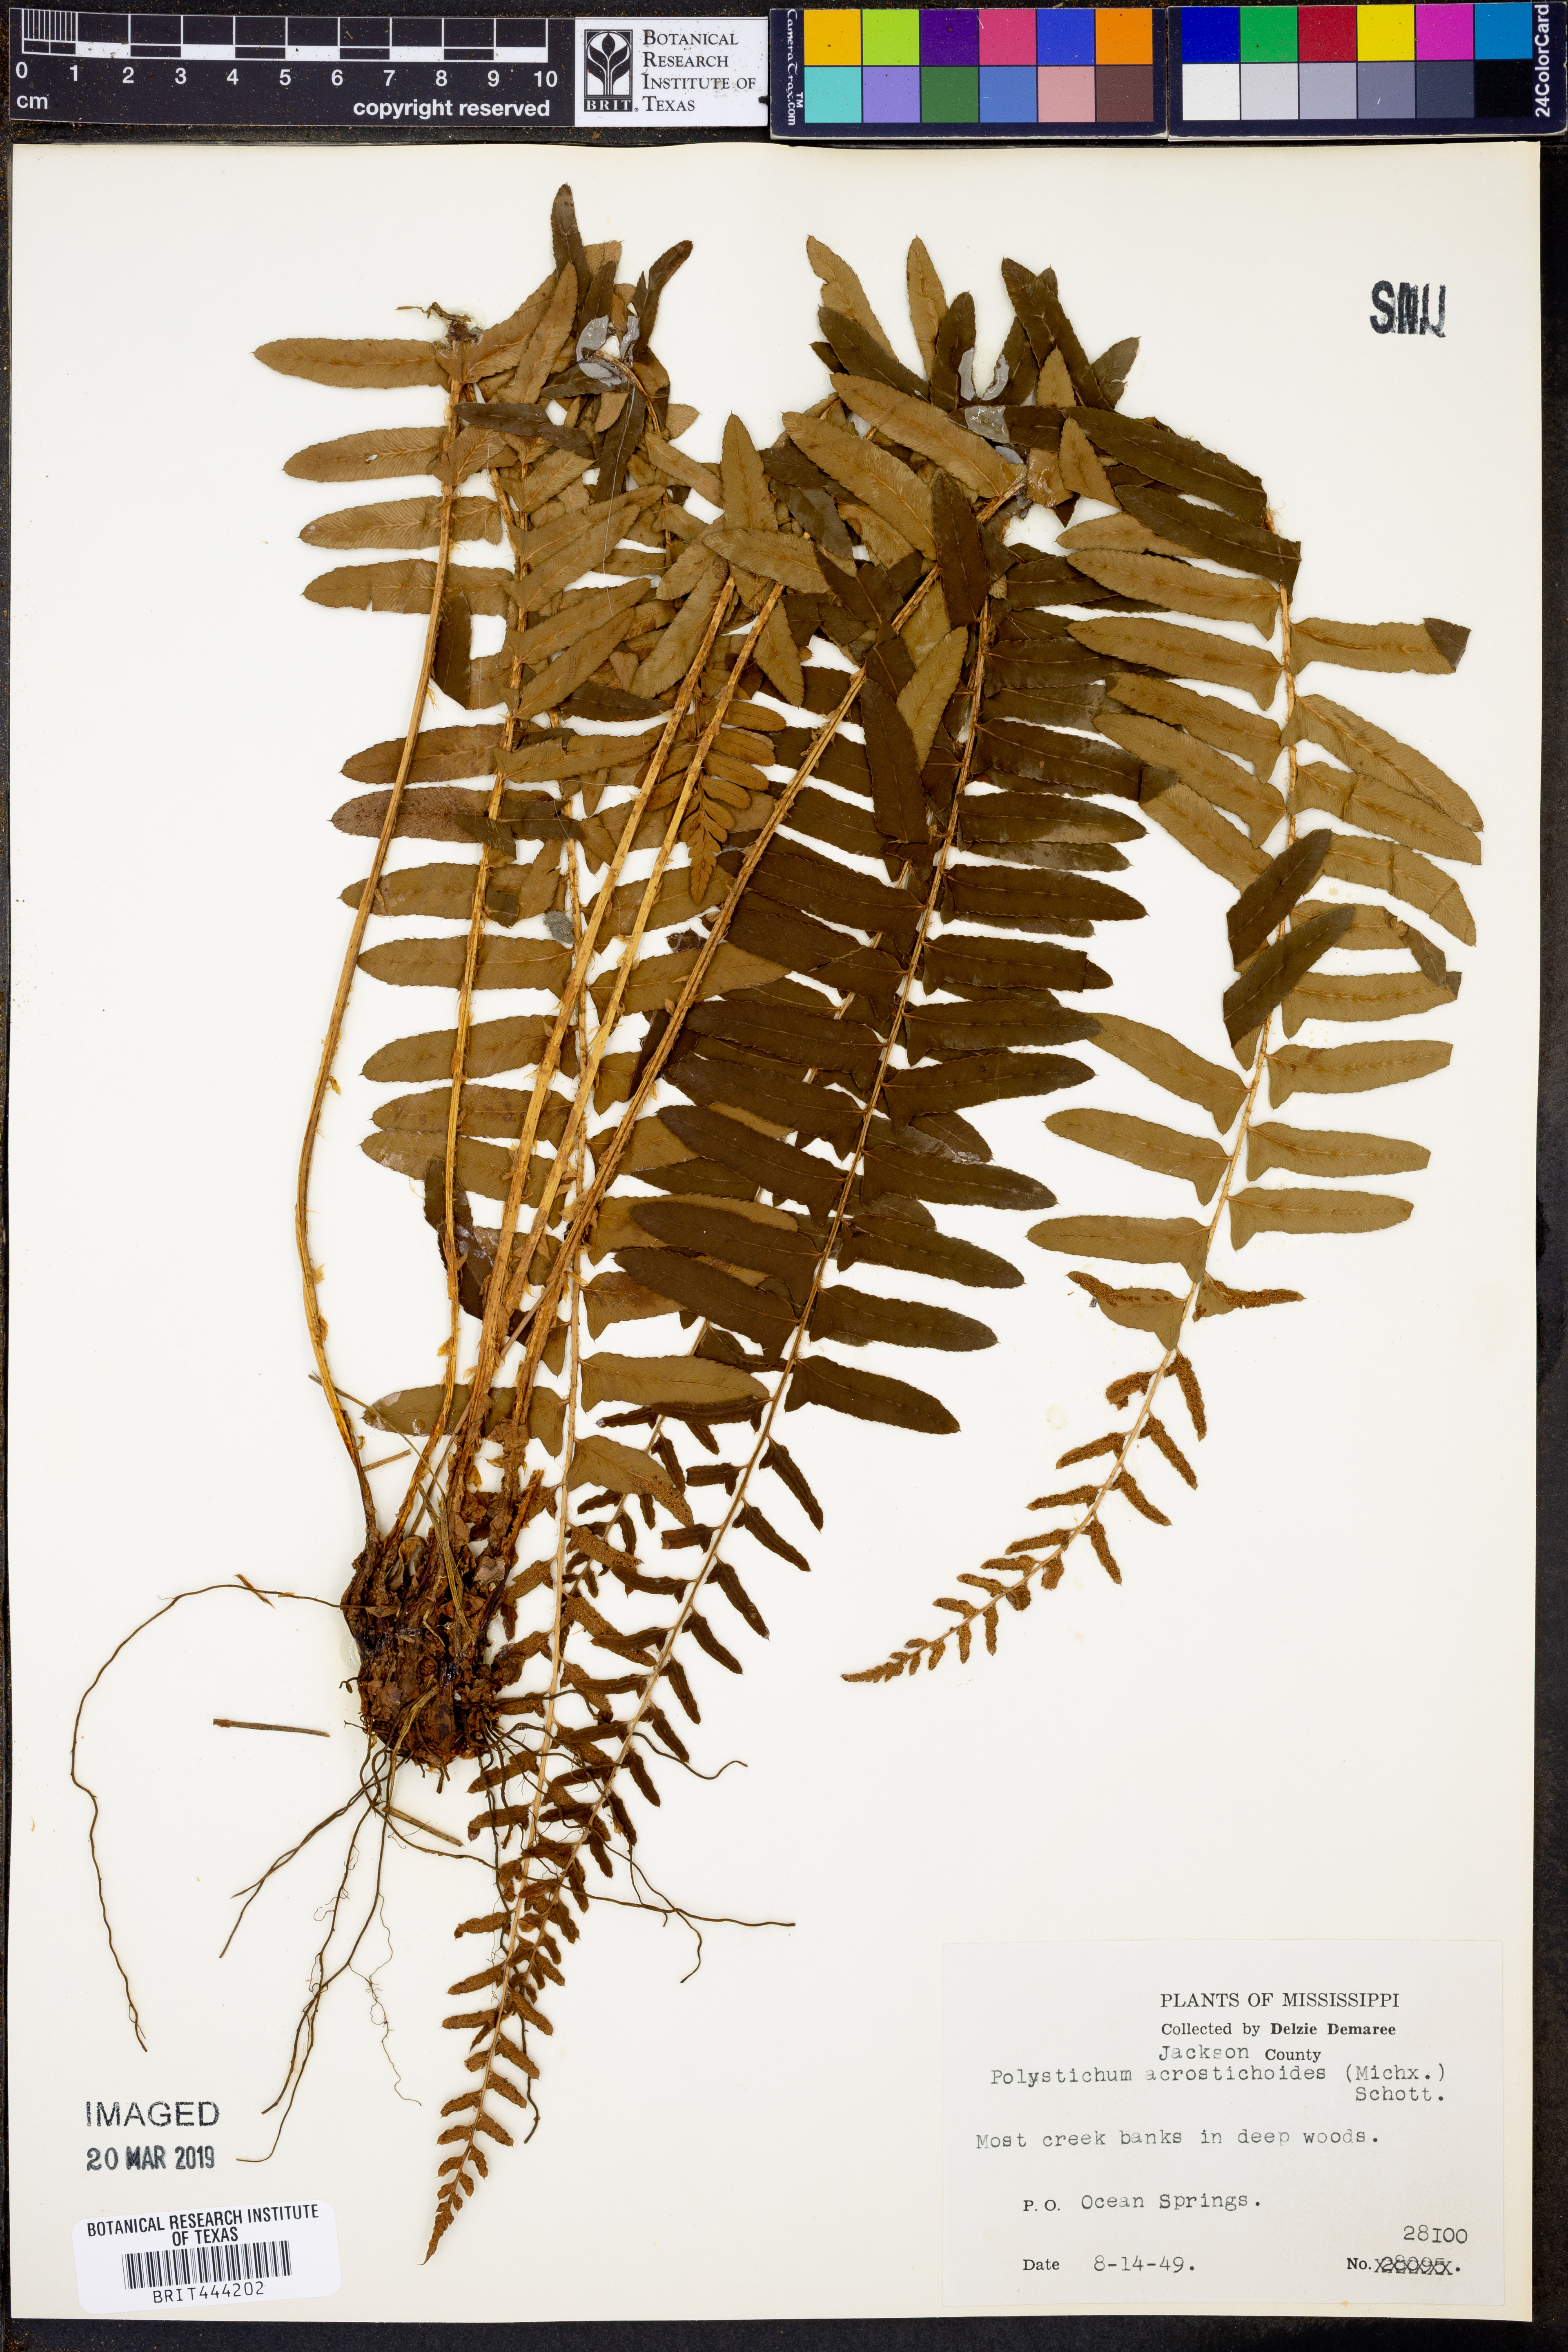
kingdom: Plantae
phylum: Tracheophyta
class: Polypodiopsida
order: Polypodiales
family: Dryopteridaceae
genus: Polystichum
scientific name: Polystichum acrostichoides
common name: Christmas fern
